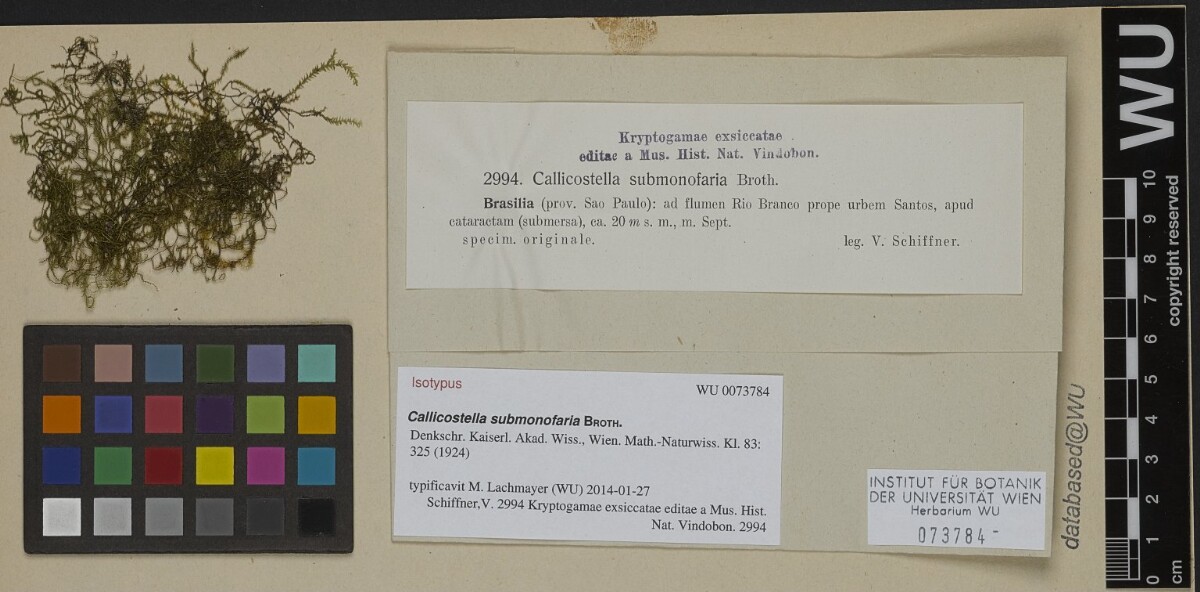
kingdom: Plantae
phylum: Bryophyta
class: Bryopsida
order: Hookeriales
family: Pilotrichaceae
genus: Callicostella
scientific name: Callicostella submonofaria
